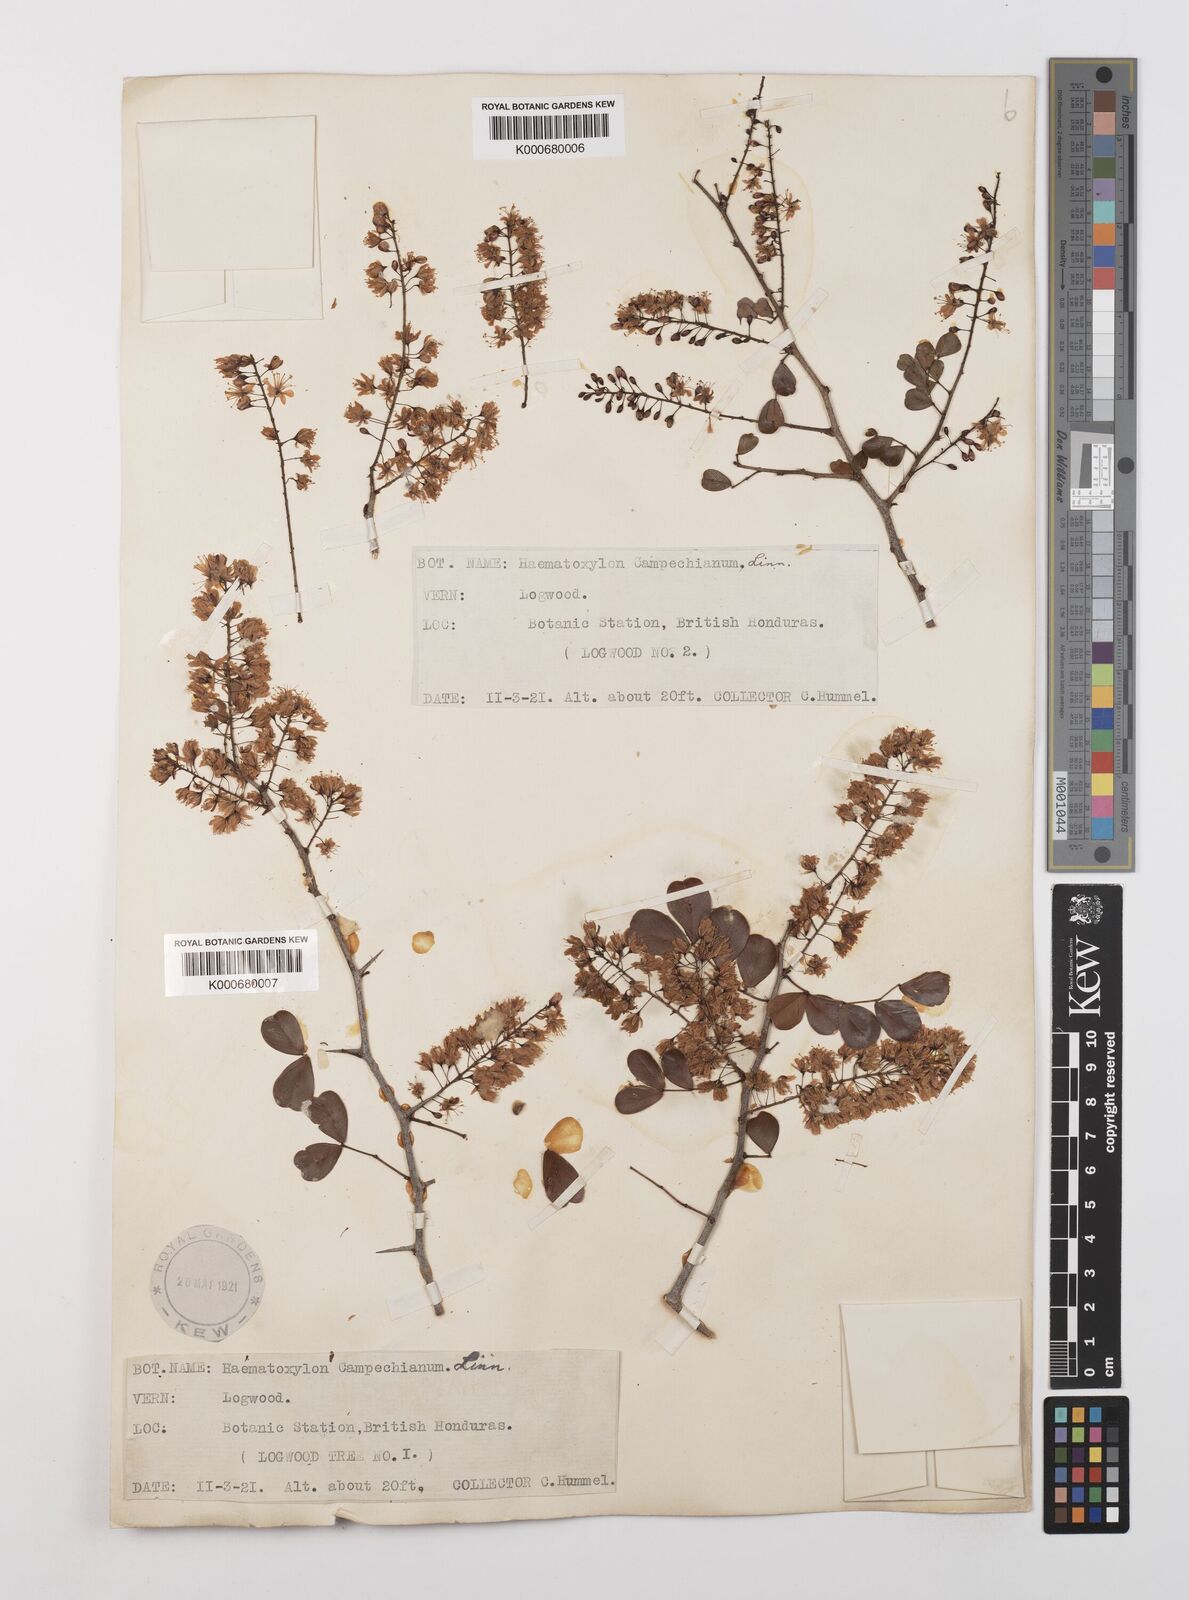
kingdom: Plantae
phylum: Tracheophyta
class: Magnoliopsida
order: Fabales
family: Fabaceae
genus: Haematoxylum
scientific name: Haematoxylum
